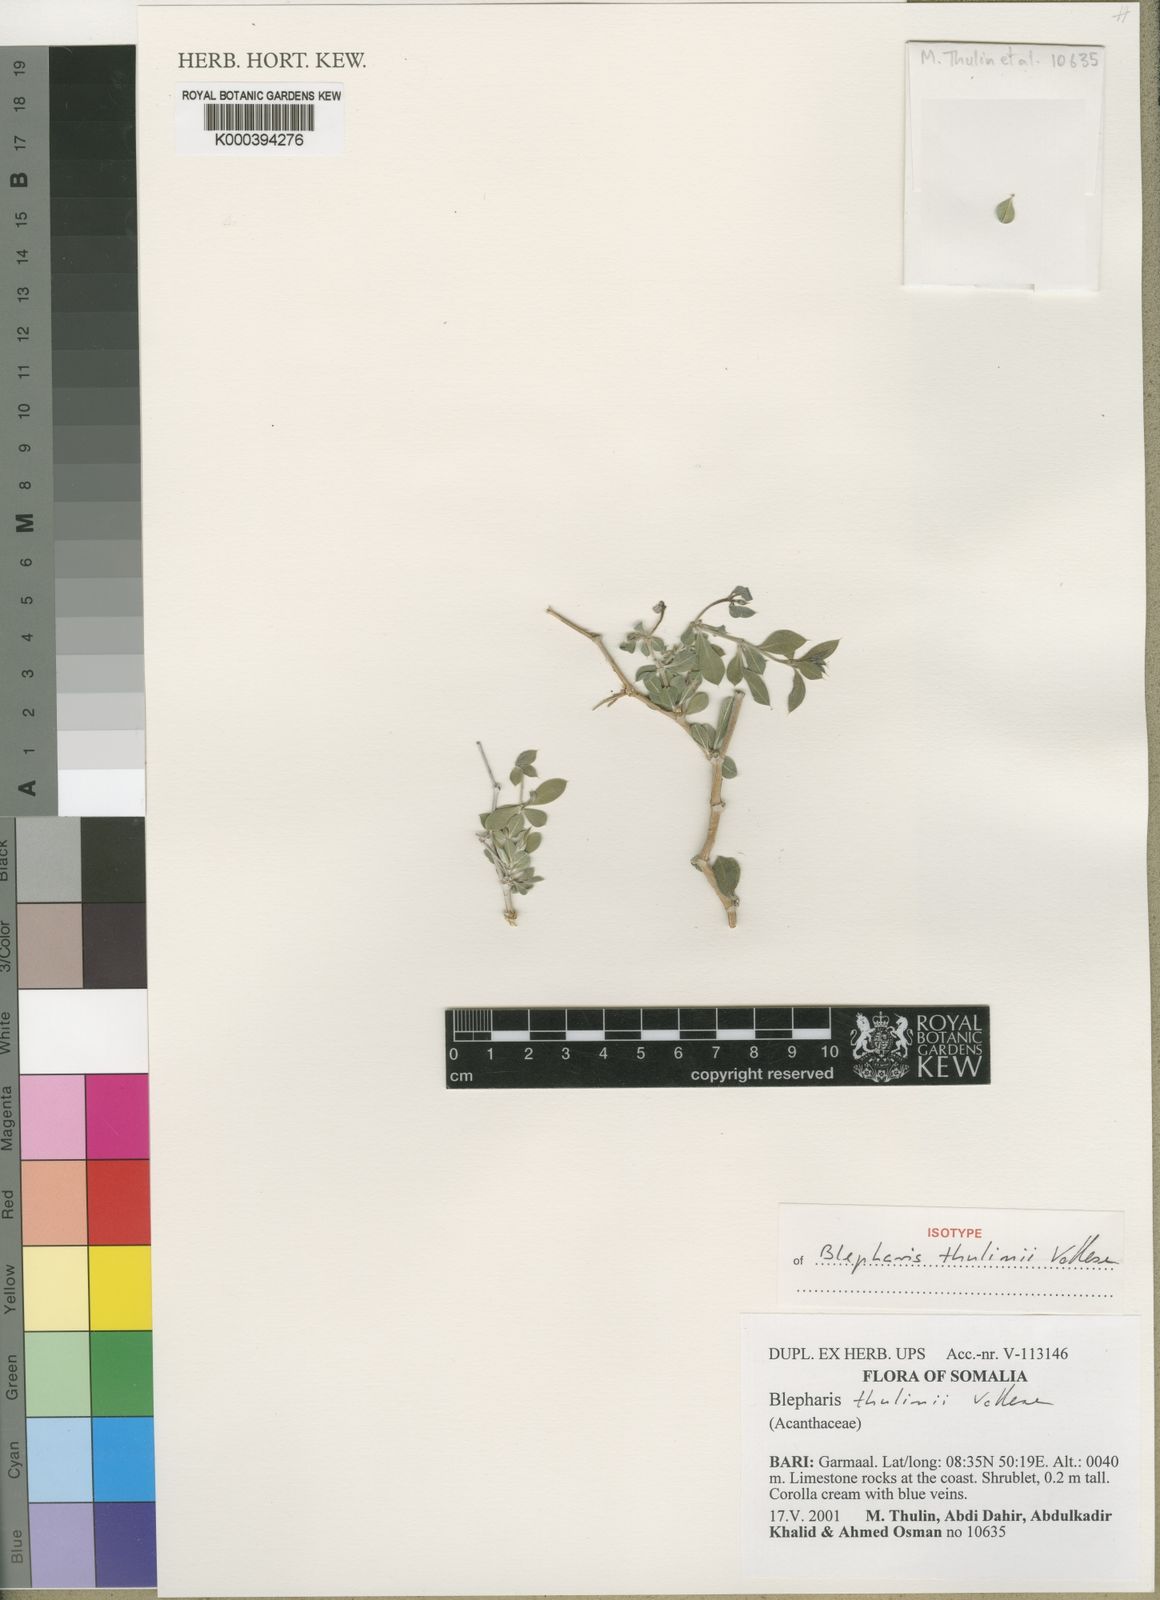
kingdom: Plantae
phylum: Tracheophyta
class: Magnoliopsida
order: Lamiales
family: Acanthaceae
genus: Blepharis
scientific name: Blepharis thulinii
